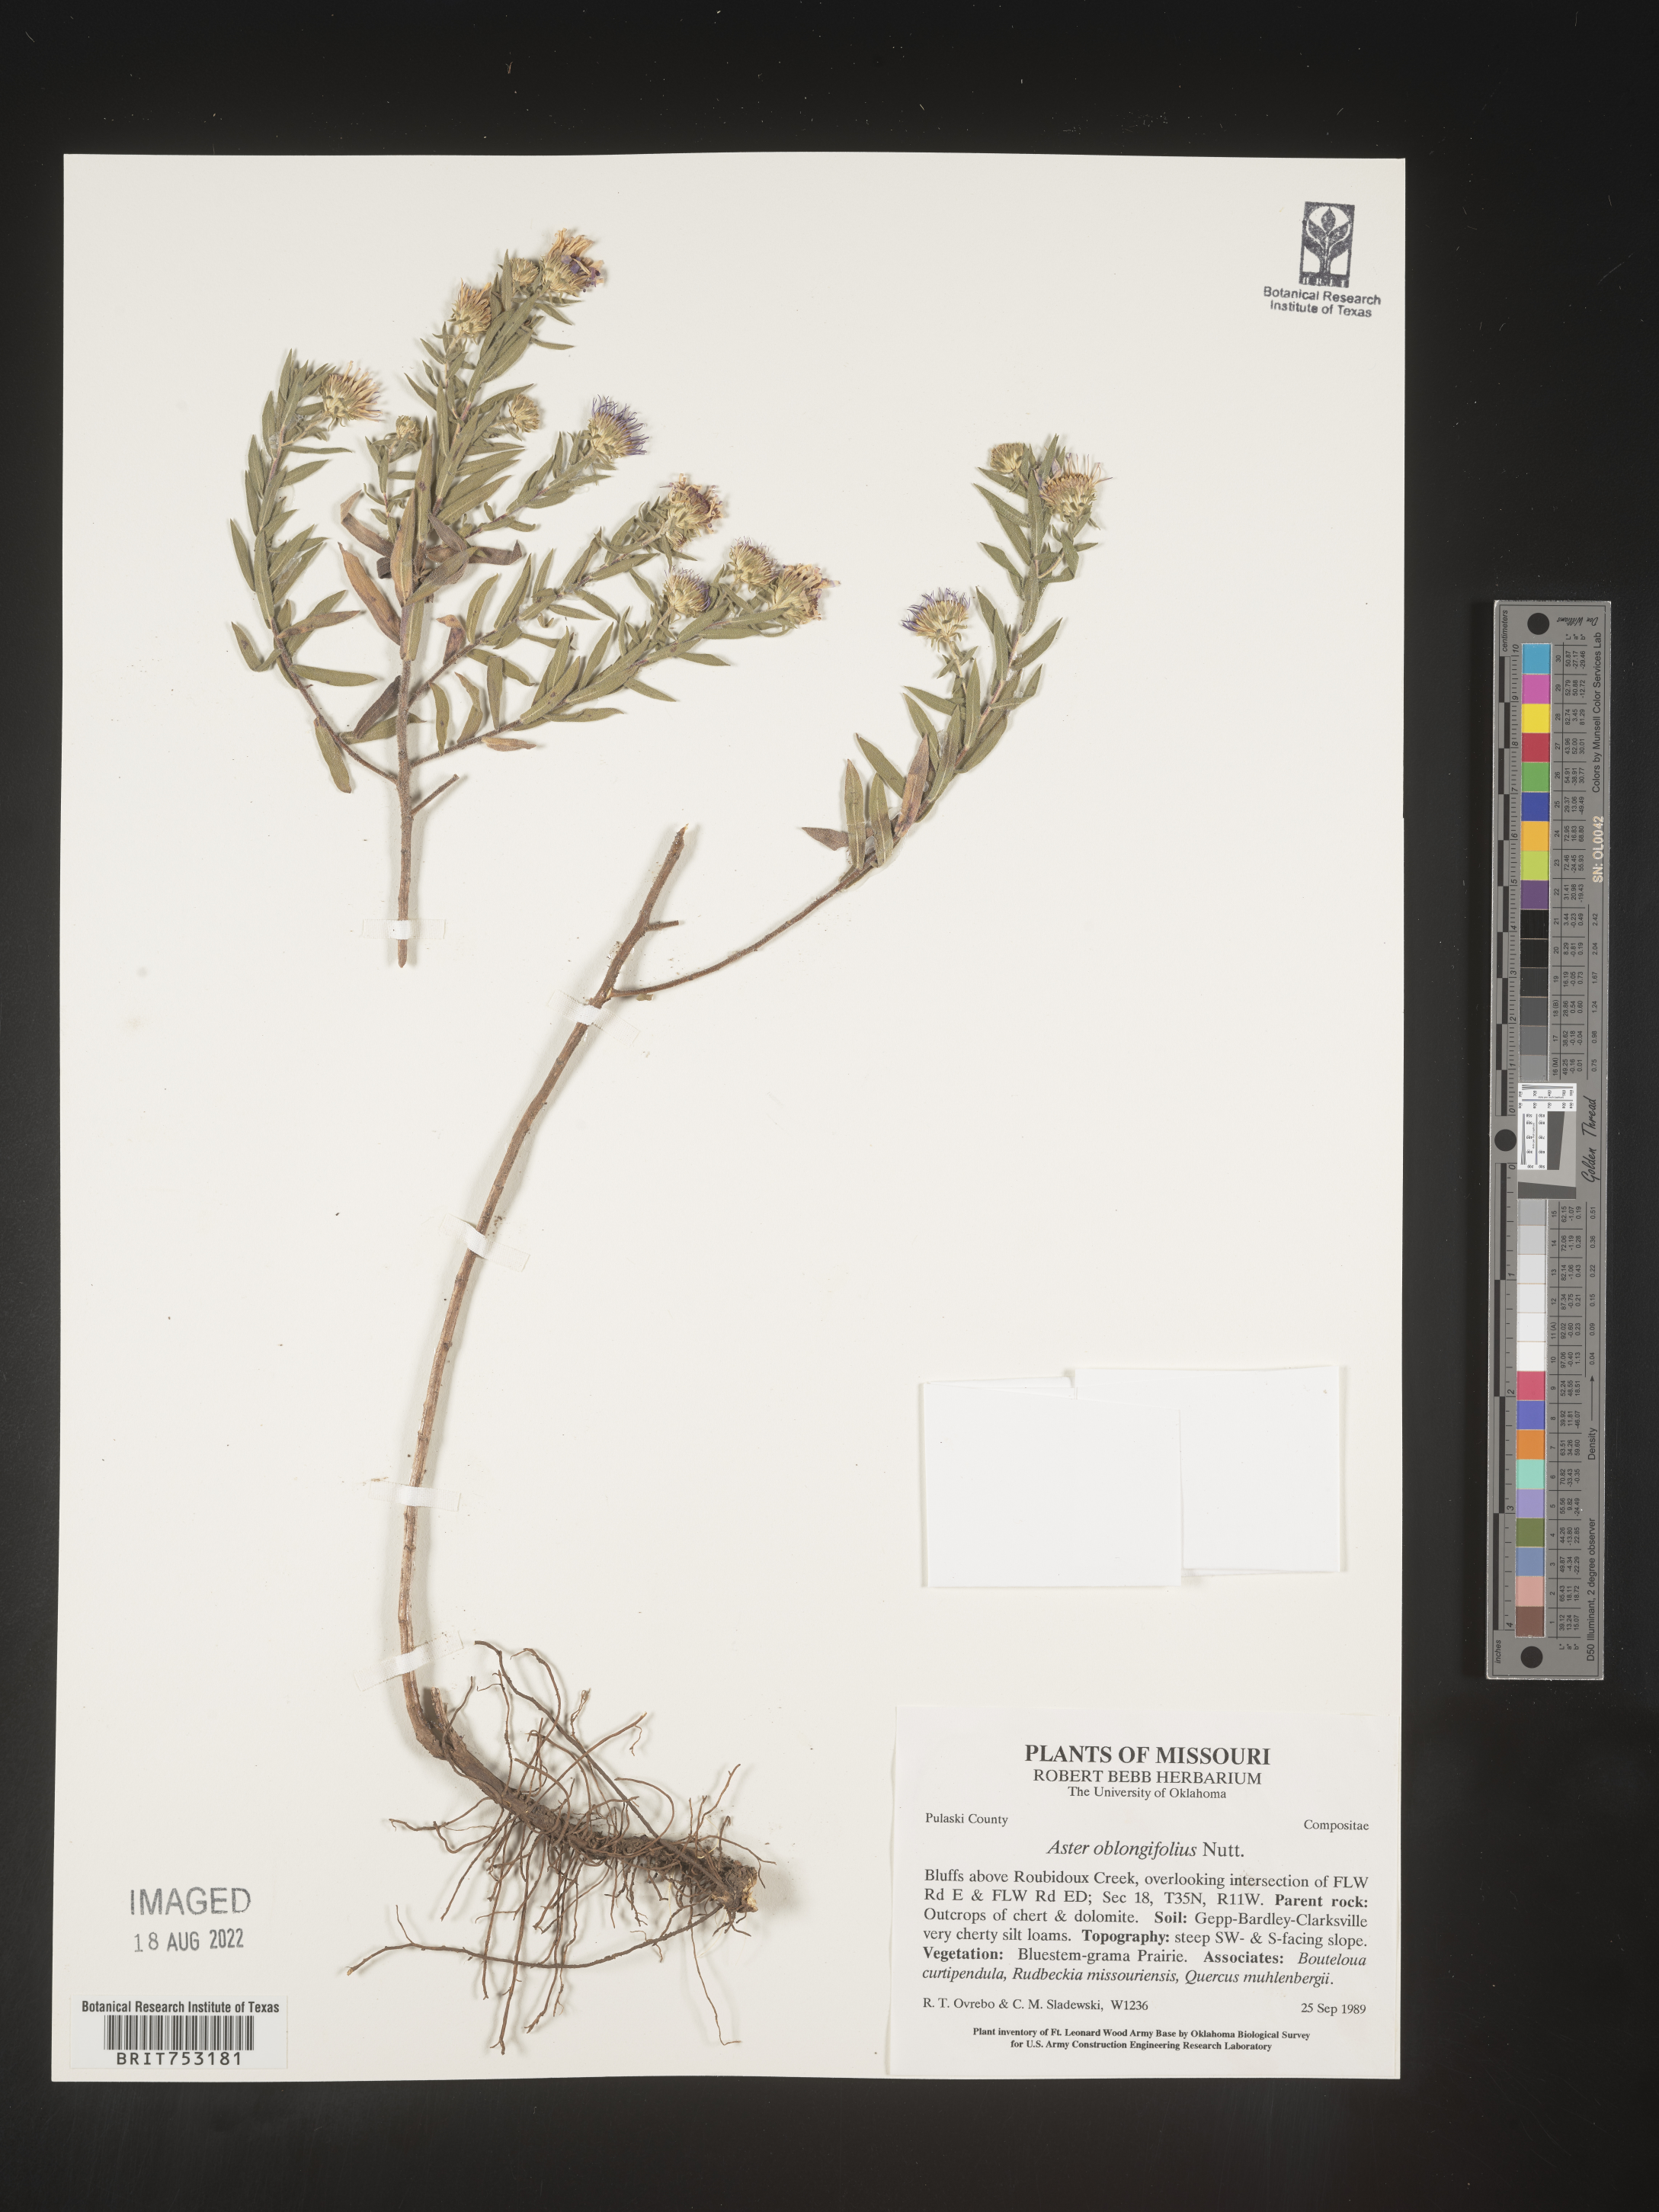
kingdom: Plantae
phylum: Tracheophyta
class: Magnoliopsida
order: Asterales
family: Asteraceae
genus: Symphyotrichum
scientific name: Symphyotrichum oblongifolium
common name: Aromatic aster
